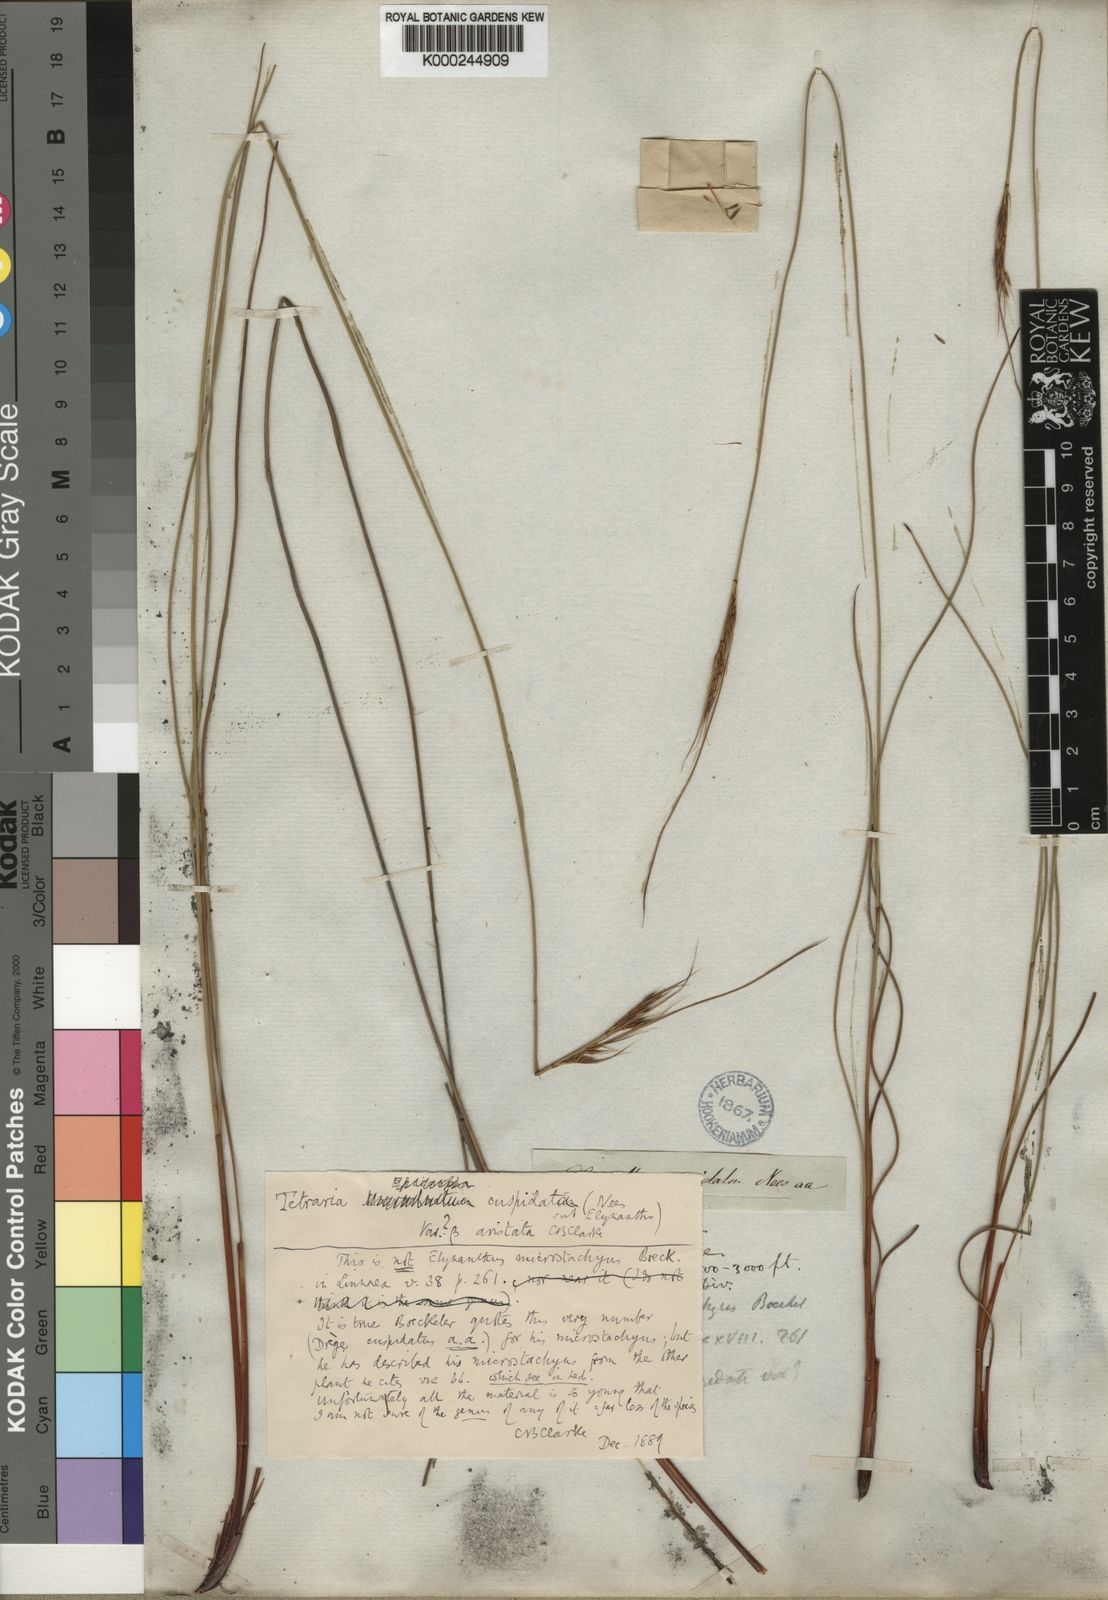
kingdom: Plantae
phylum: Tracheophyta
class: Liliopsida
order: Poales
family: Cyperaceae
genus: Schoenus
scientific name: Schoenus crassus
